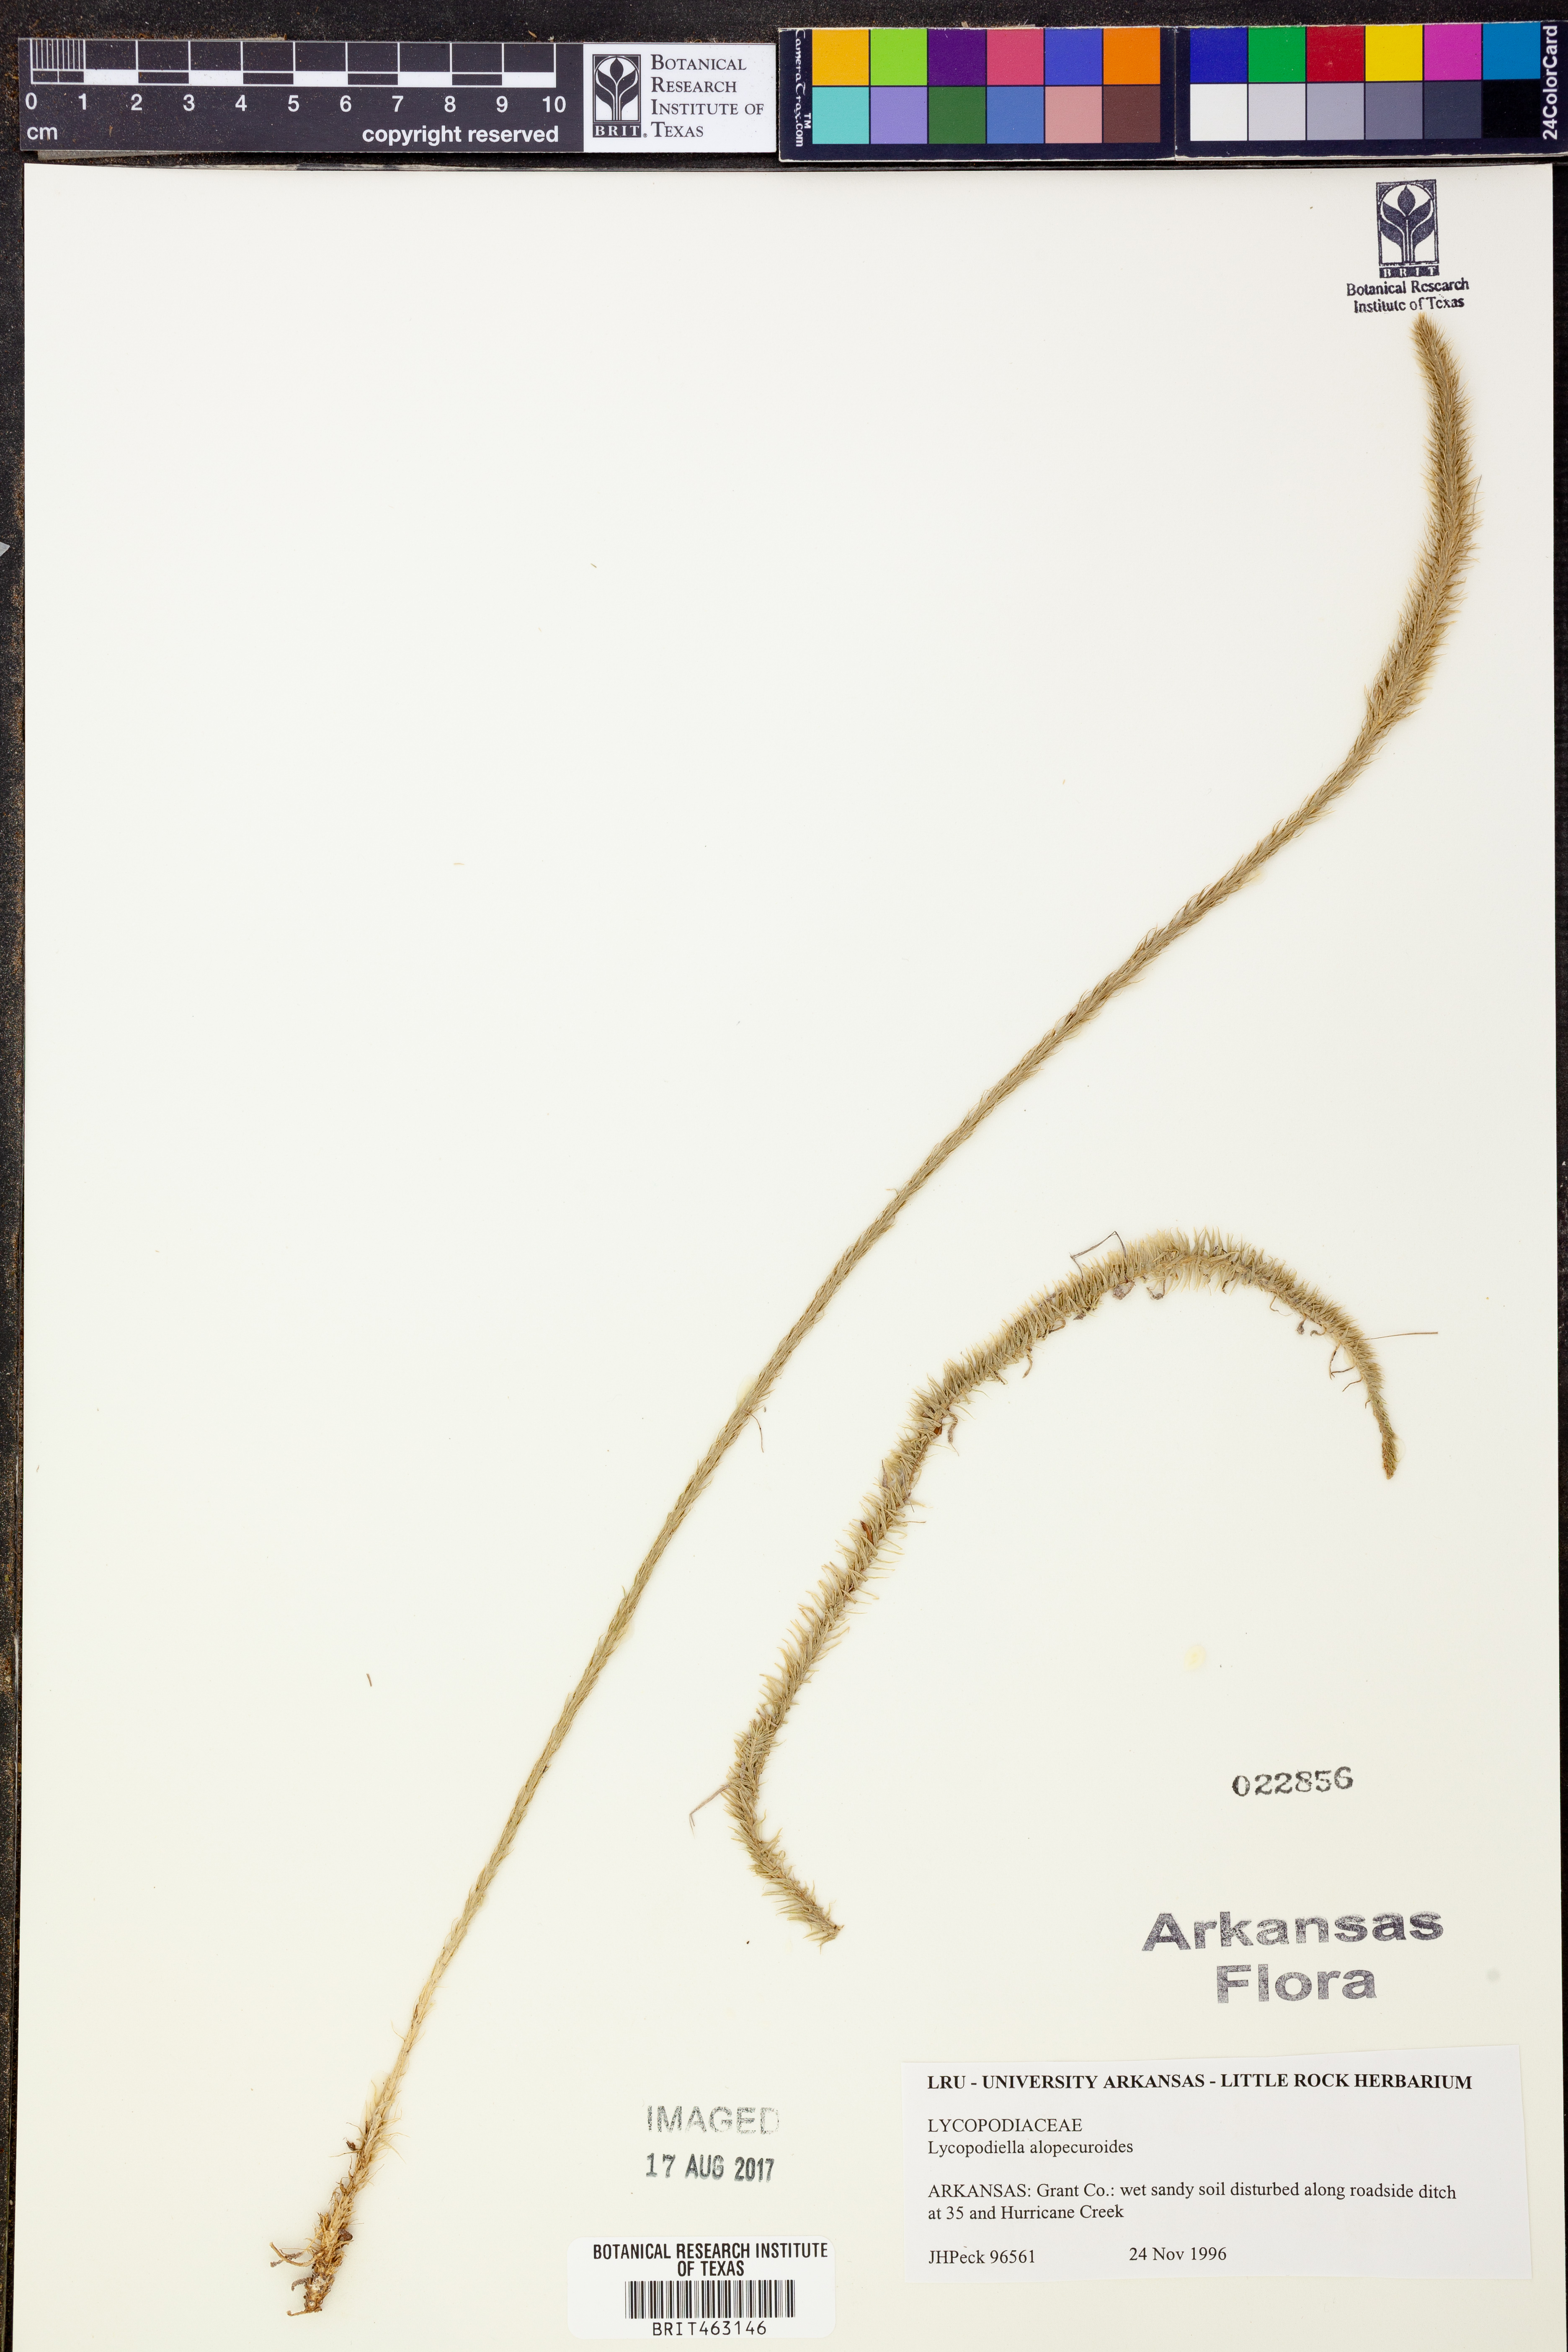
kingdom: Plantae
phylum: Tracheophyta
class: Lycopodiopsida
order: Lycopodiales
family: Lycopodiaceae
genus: Lycopodiella
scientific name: Lycopodiella alopecuroides
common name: Foxtail clubmoss
